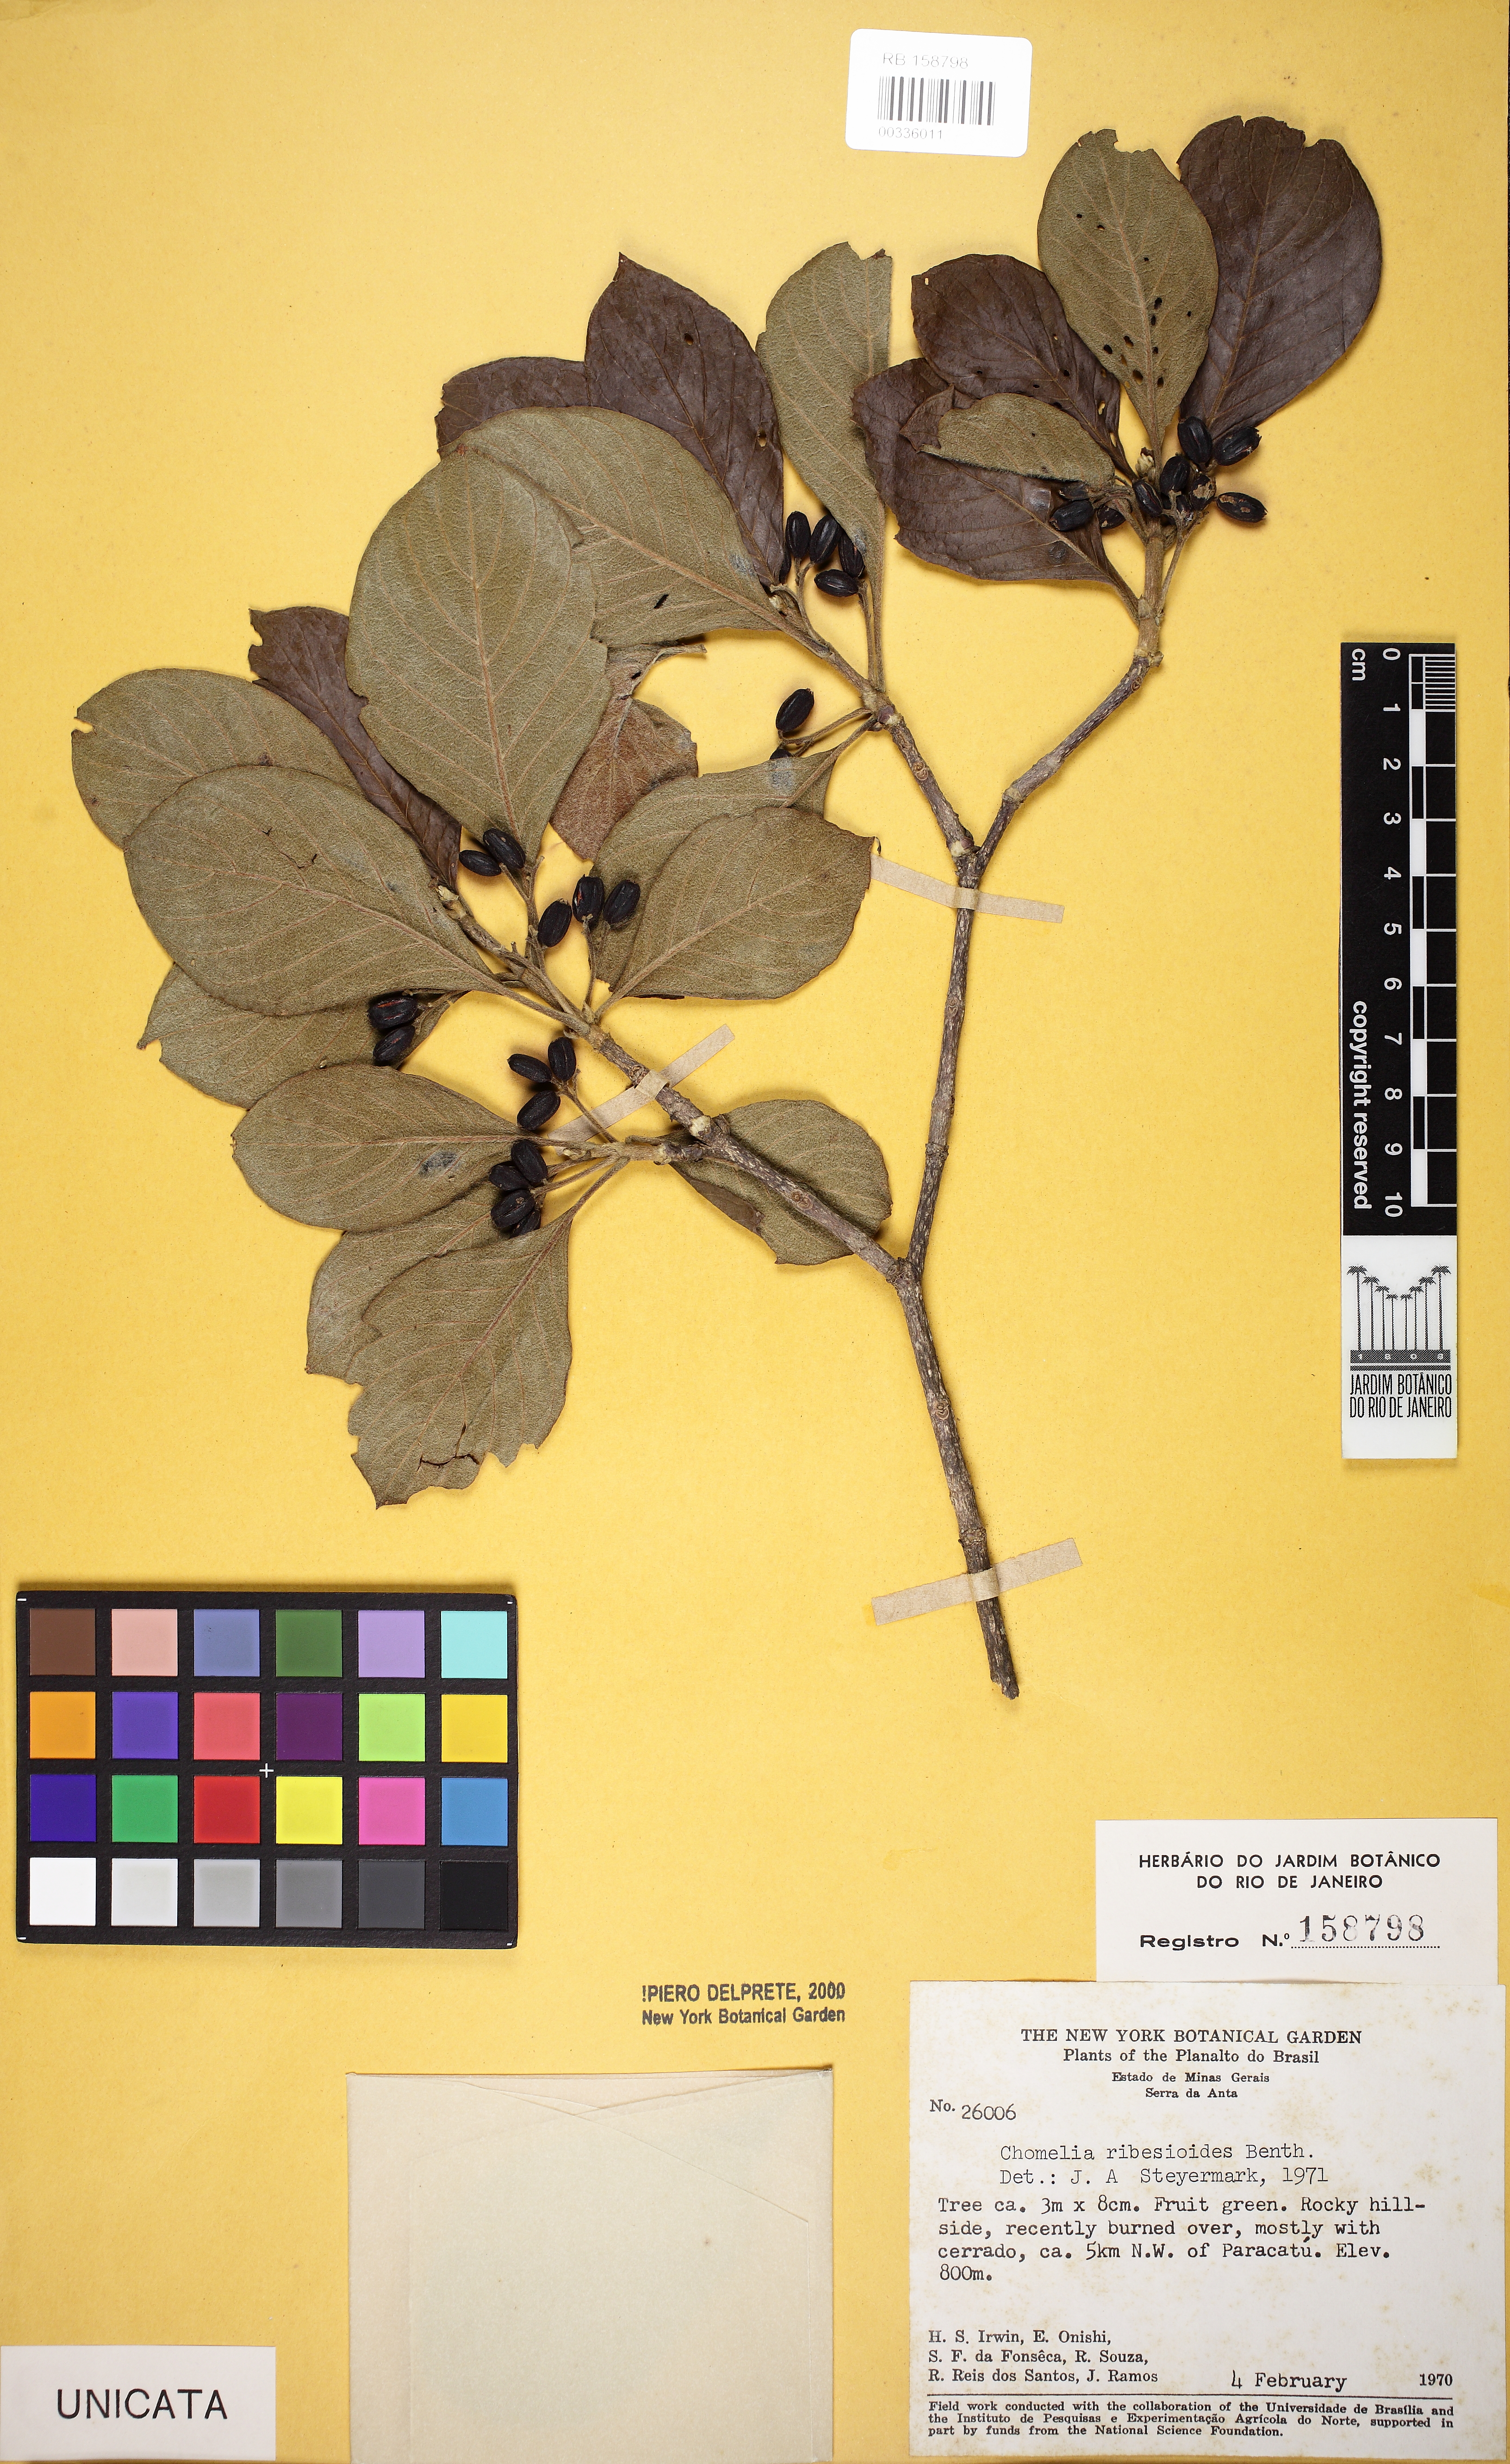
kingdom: Plantae
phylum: Tracheophyta
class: Magnoliopsida
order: Gentianales
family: Rubiaceae
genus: Chomelia
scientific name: Chomelia ribesioides
